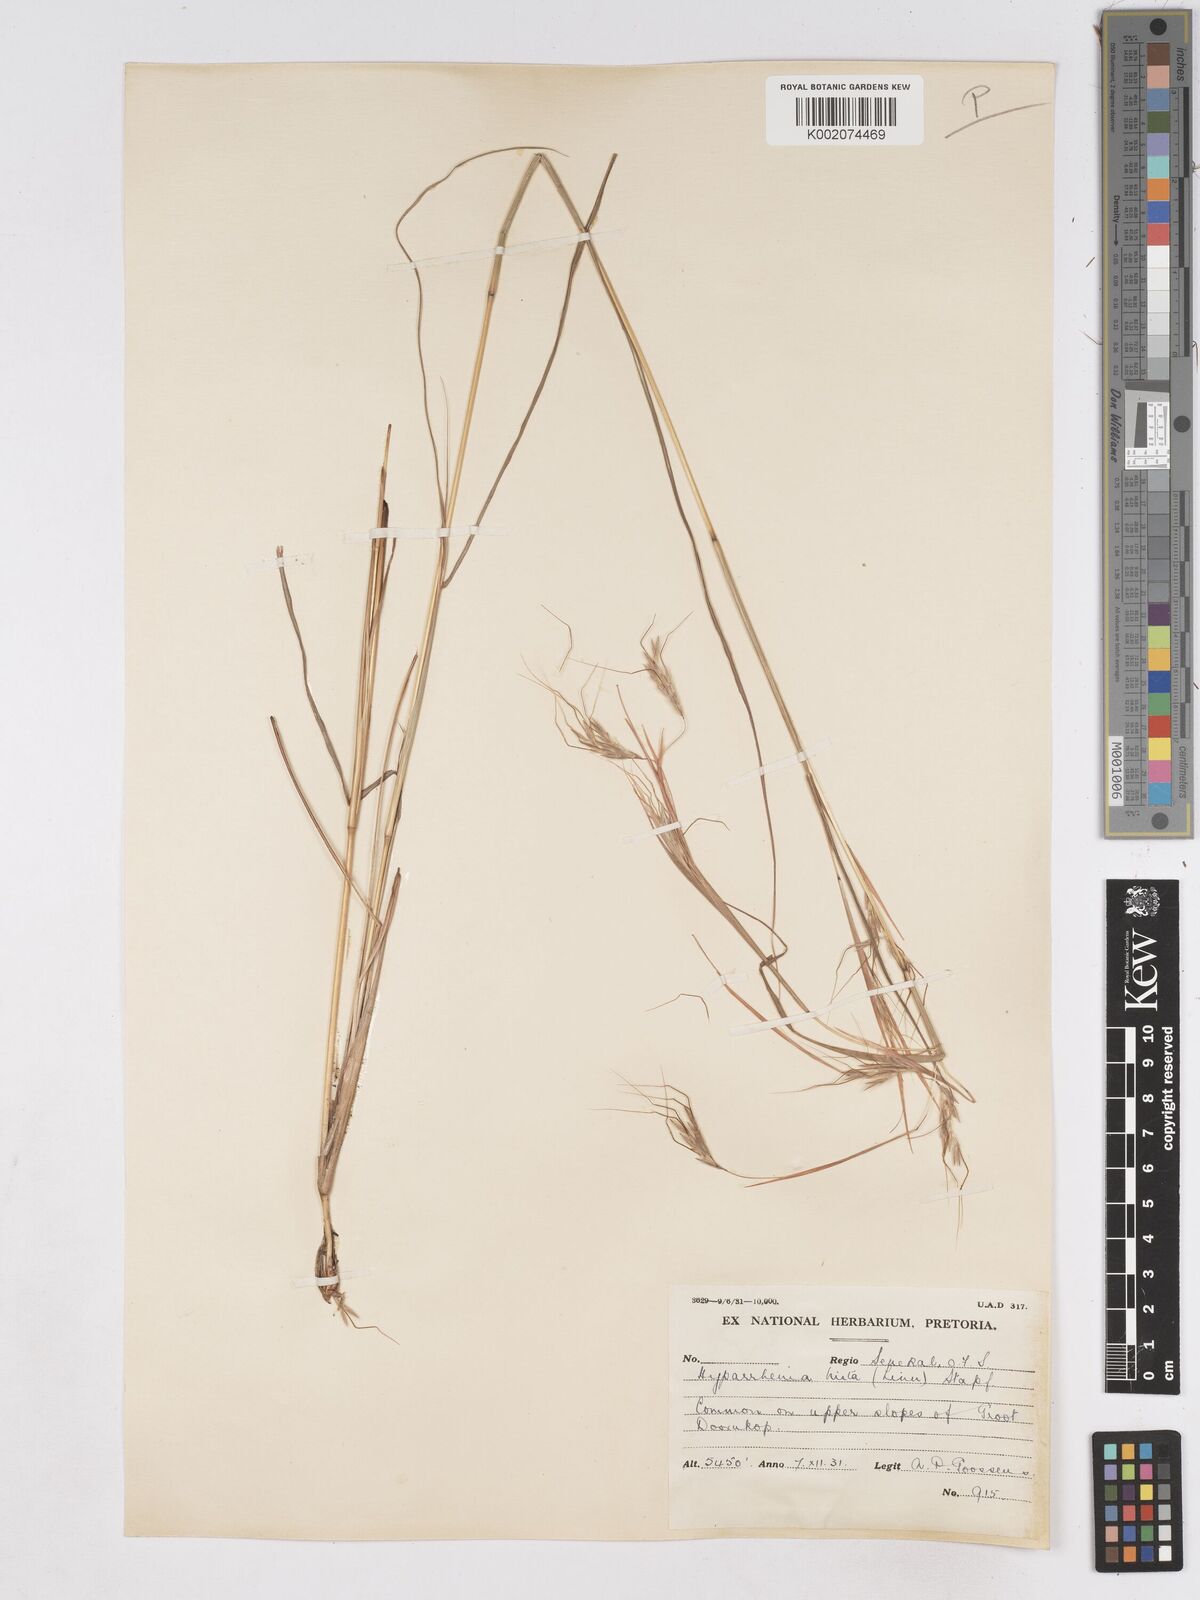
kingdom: Plantae
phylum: Tracheophyta
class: Liliopsida
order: Poales
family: Poaceae
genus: Hyparrhenia
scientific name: Hyparrhenia hirta
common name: Thatching grass
